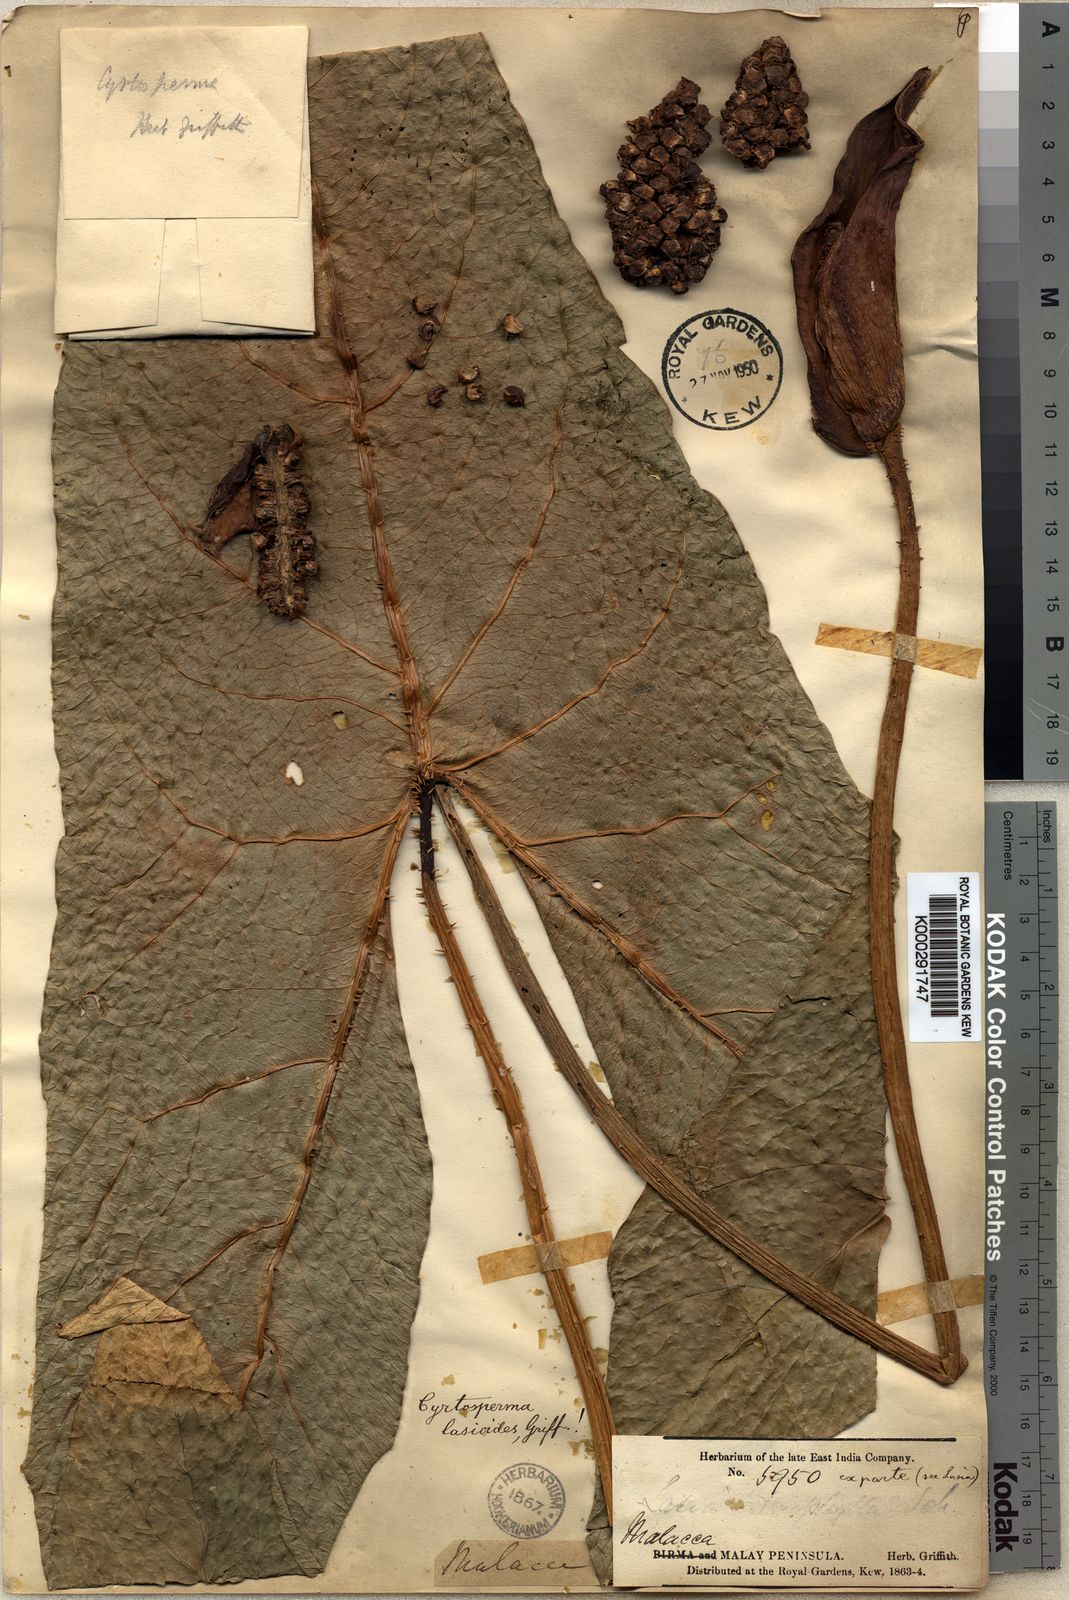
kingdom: Plantae
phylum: Tracheophyta
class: Liliopsida
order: Alismatales
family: Araceae
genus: Cyrtosperma
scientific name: Cyrtosperma merkusii
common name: Giant swamp-taro
